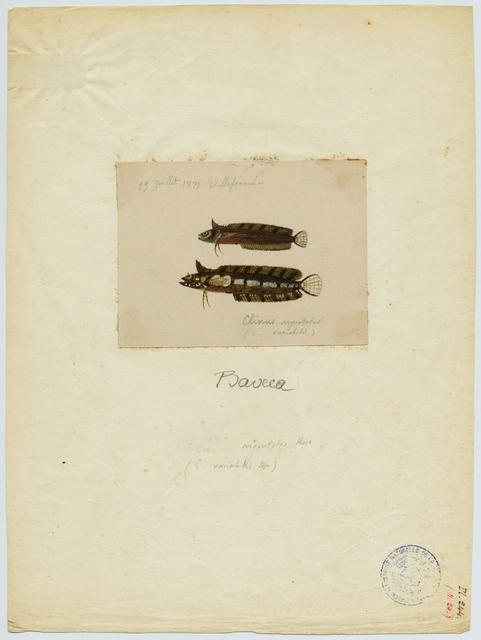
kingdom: Animalia
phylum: Chordata
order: Perciformes
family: Clinidae
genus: Clinitrachus
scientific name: Clinitrachus argentatus
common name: Cline
